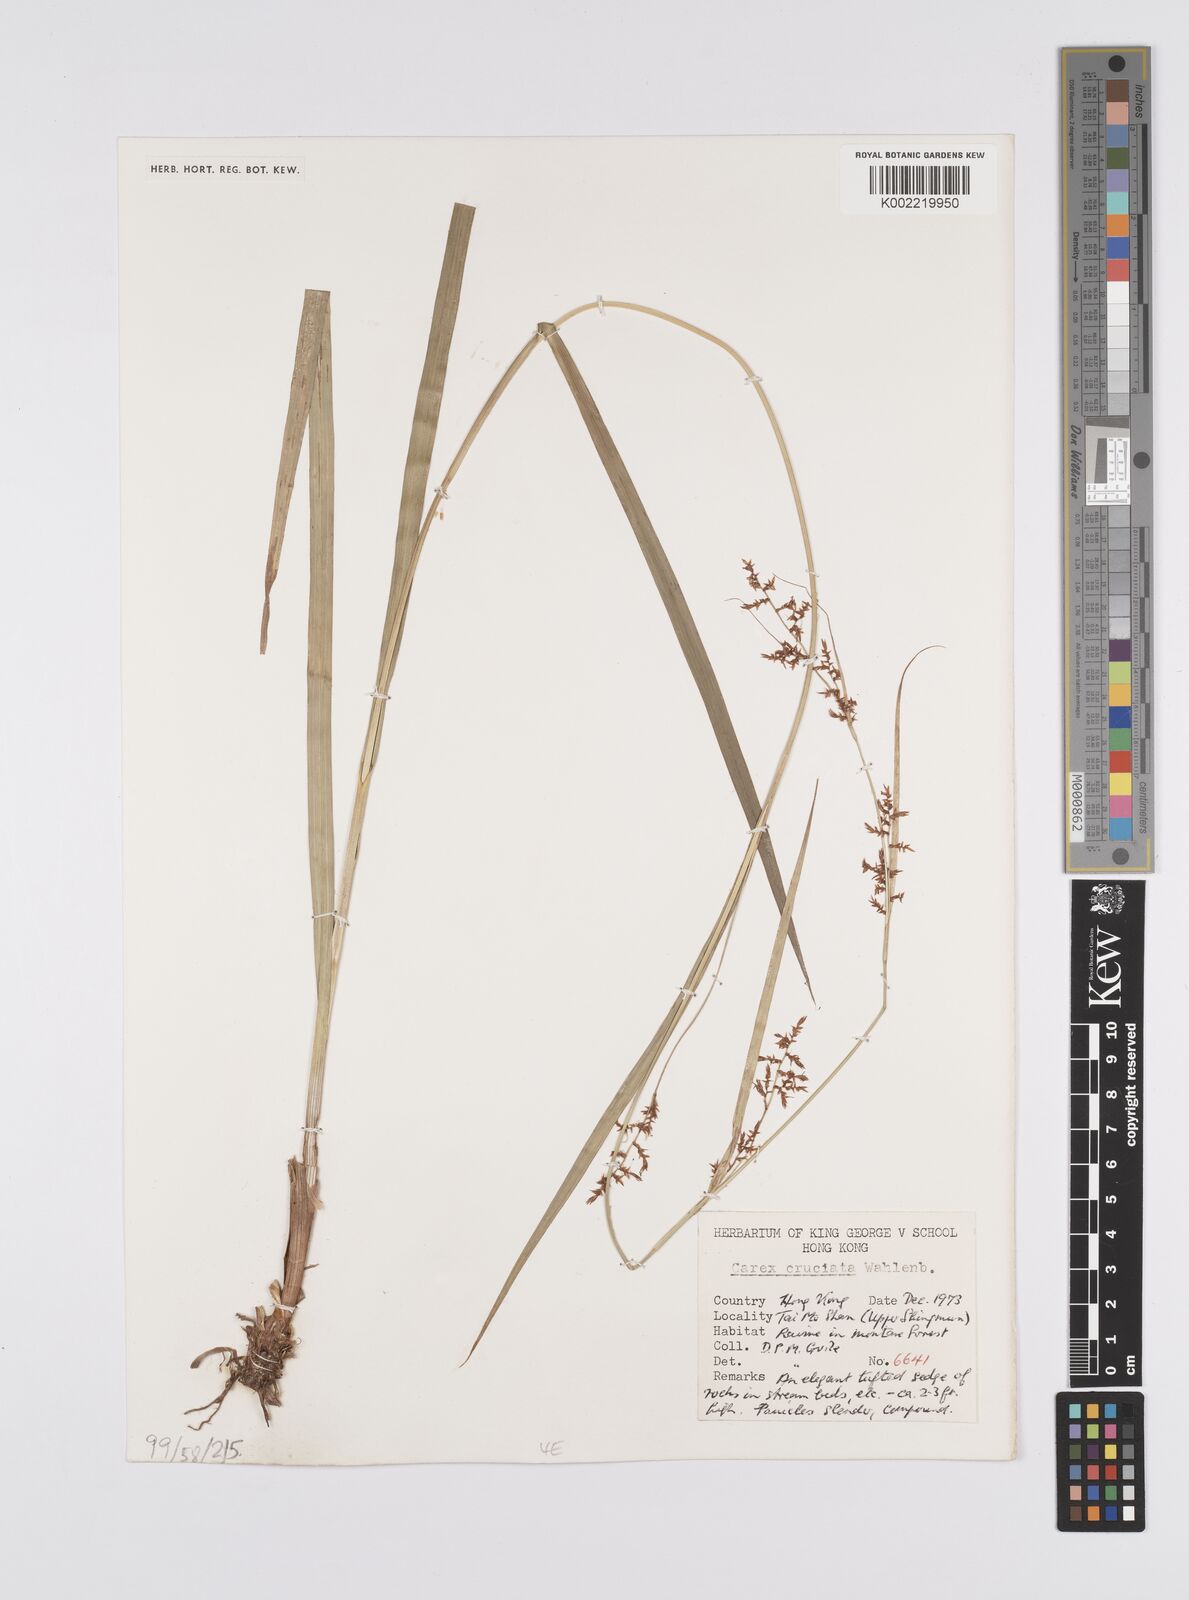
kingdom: Plantae
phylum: Tracheophyta
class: Liliopsida
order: Poales
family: Cyperaceae
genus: Carex
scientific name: Carex cruciata
